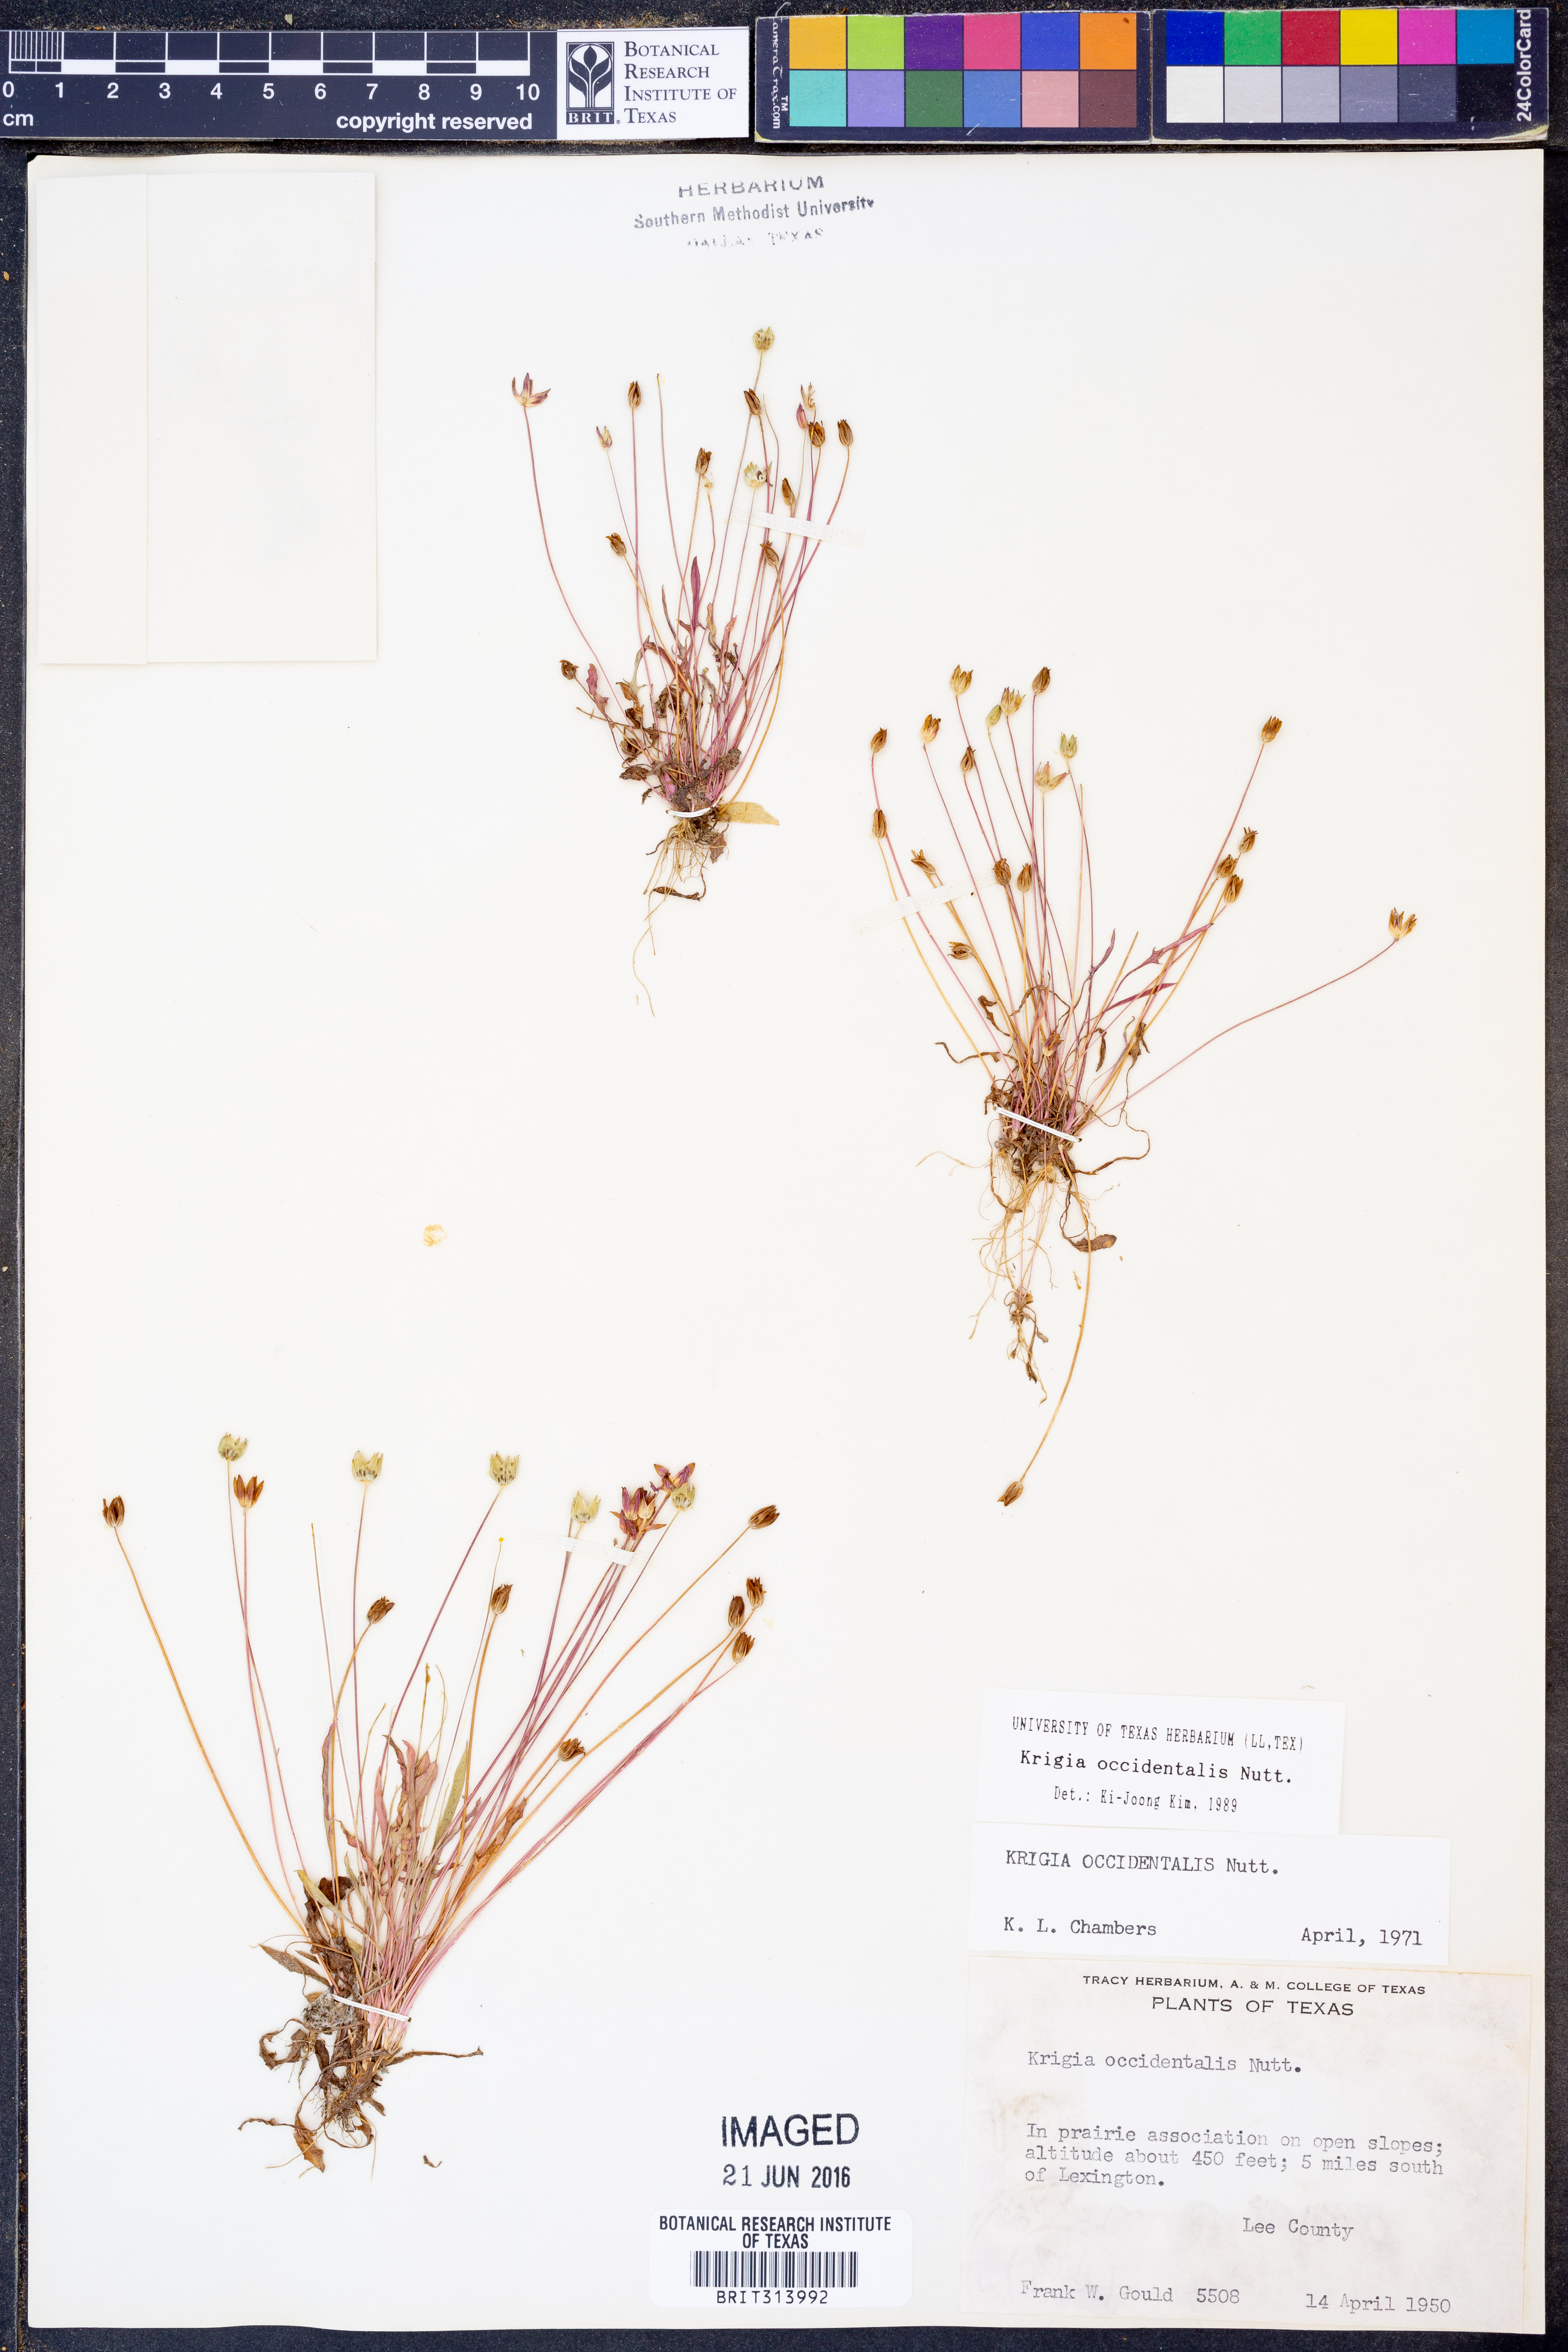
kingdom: Plantae
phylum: Tracheophyta
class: Magnoliopsida
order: Asterales
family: Asteraceae
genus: Krigia
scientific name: Krigia occidentalis
